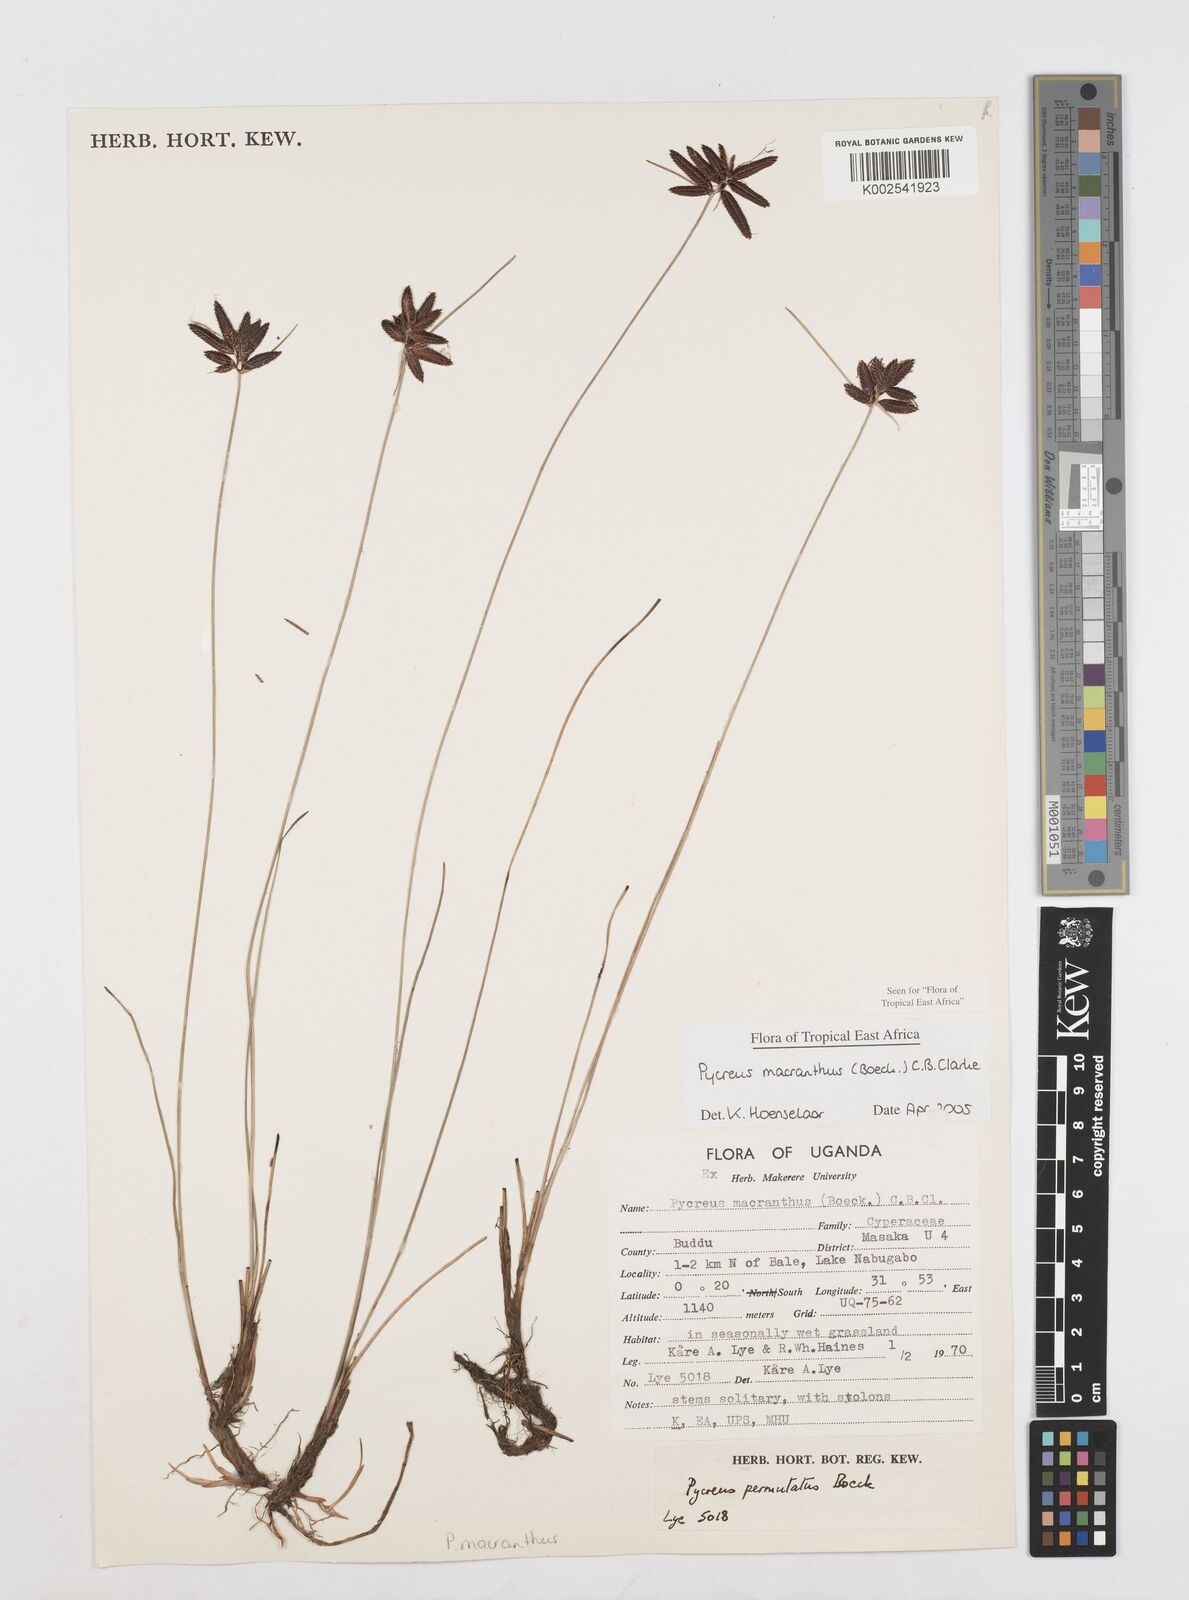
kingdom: Plantae
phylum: Tracheophyta
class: Liliopsida
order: Poales
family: Cyperaceae
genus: Cyperus
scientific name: Cyperus nigricans
